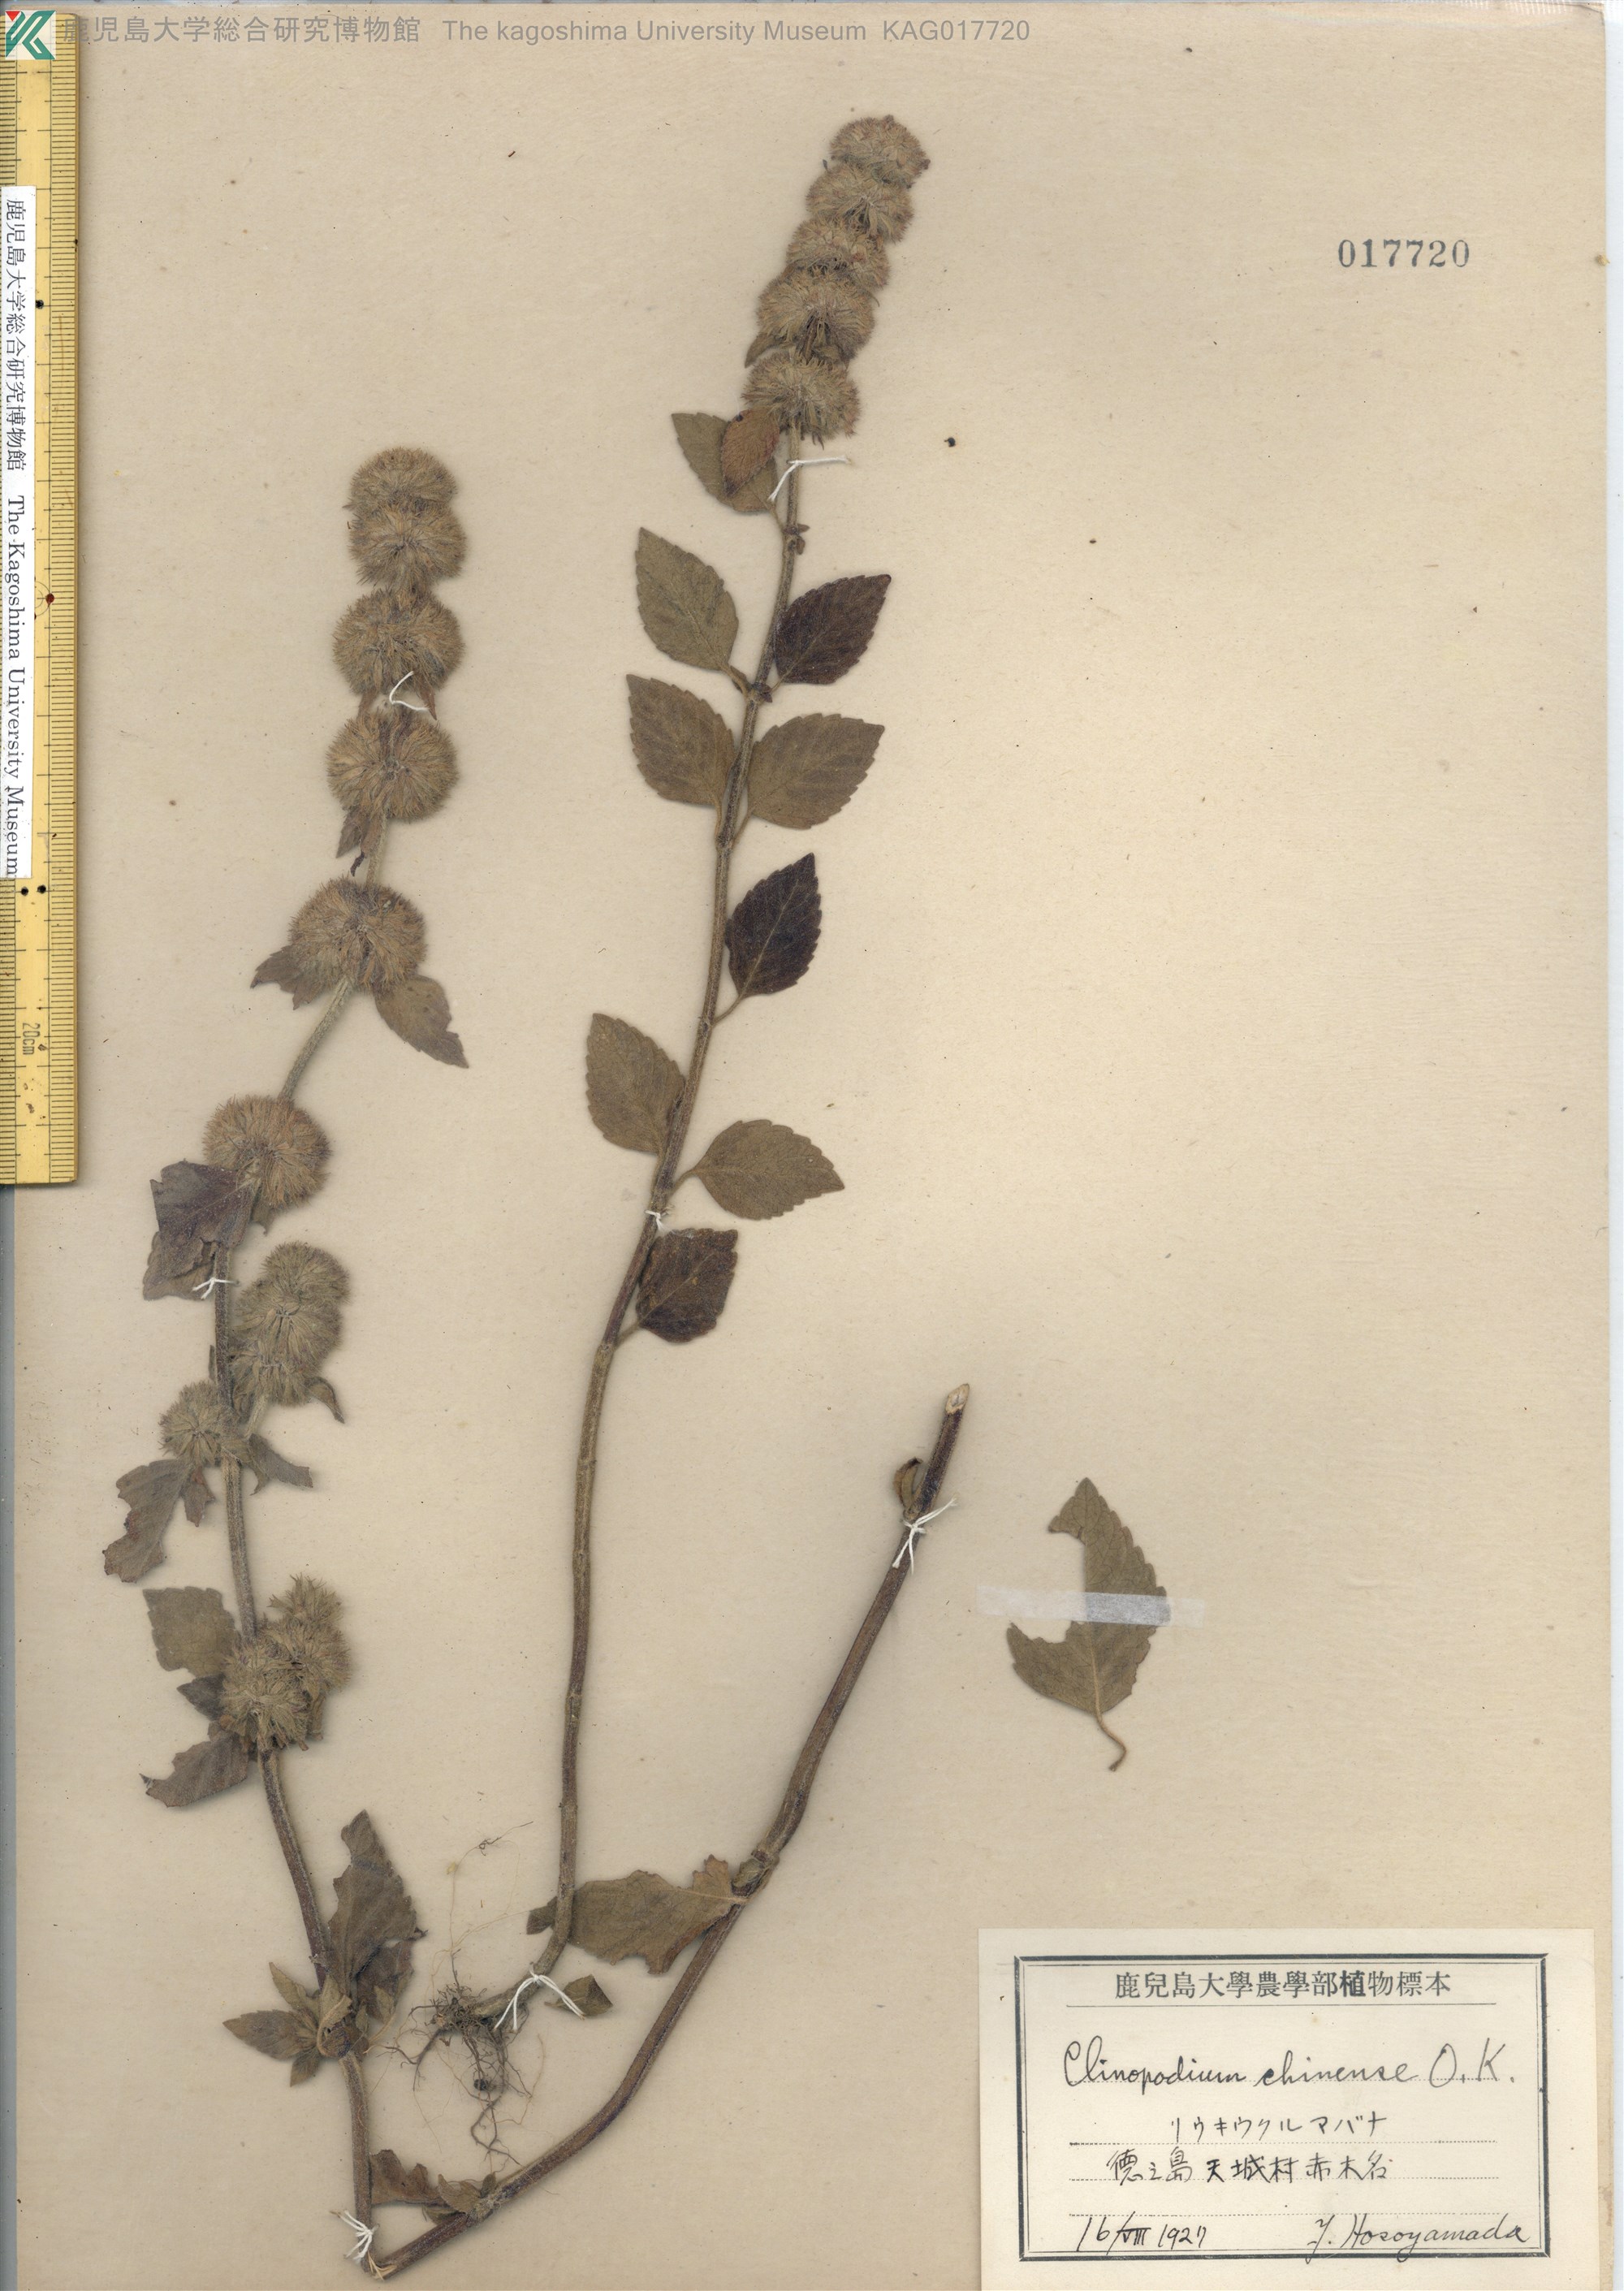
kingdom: Plantae
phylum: Tracheophyta
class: Magnoliopsida
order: Lamiales
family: Lamiaceae
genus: Clinopodium
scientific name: Clinopodium chinense
